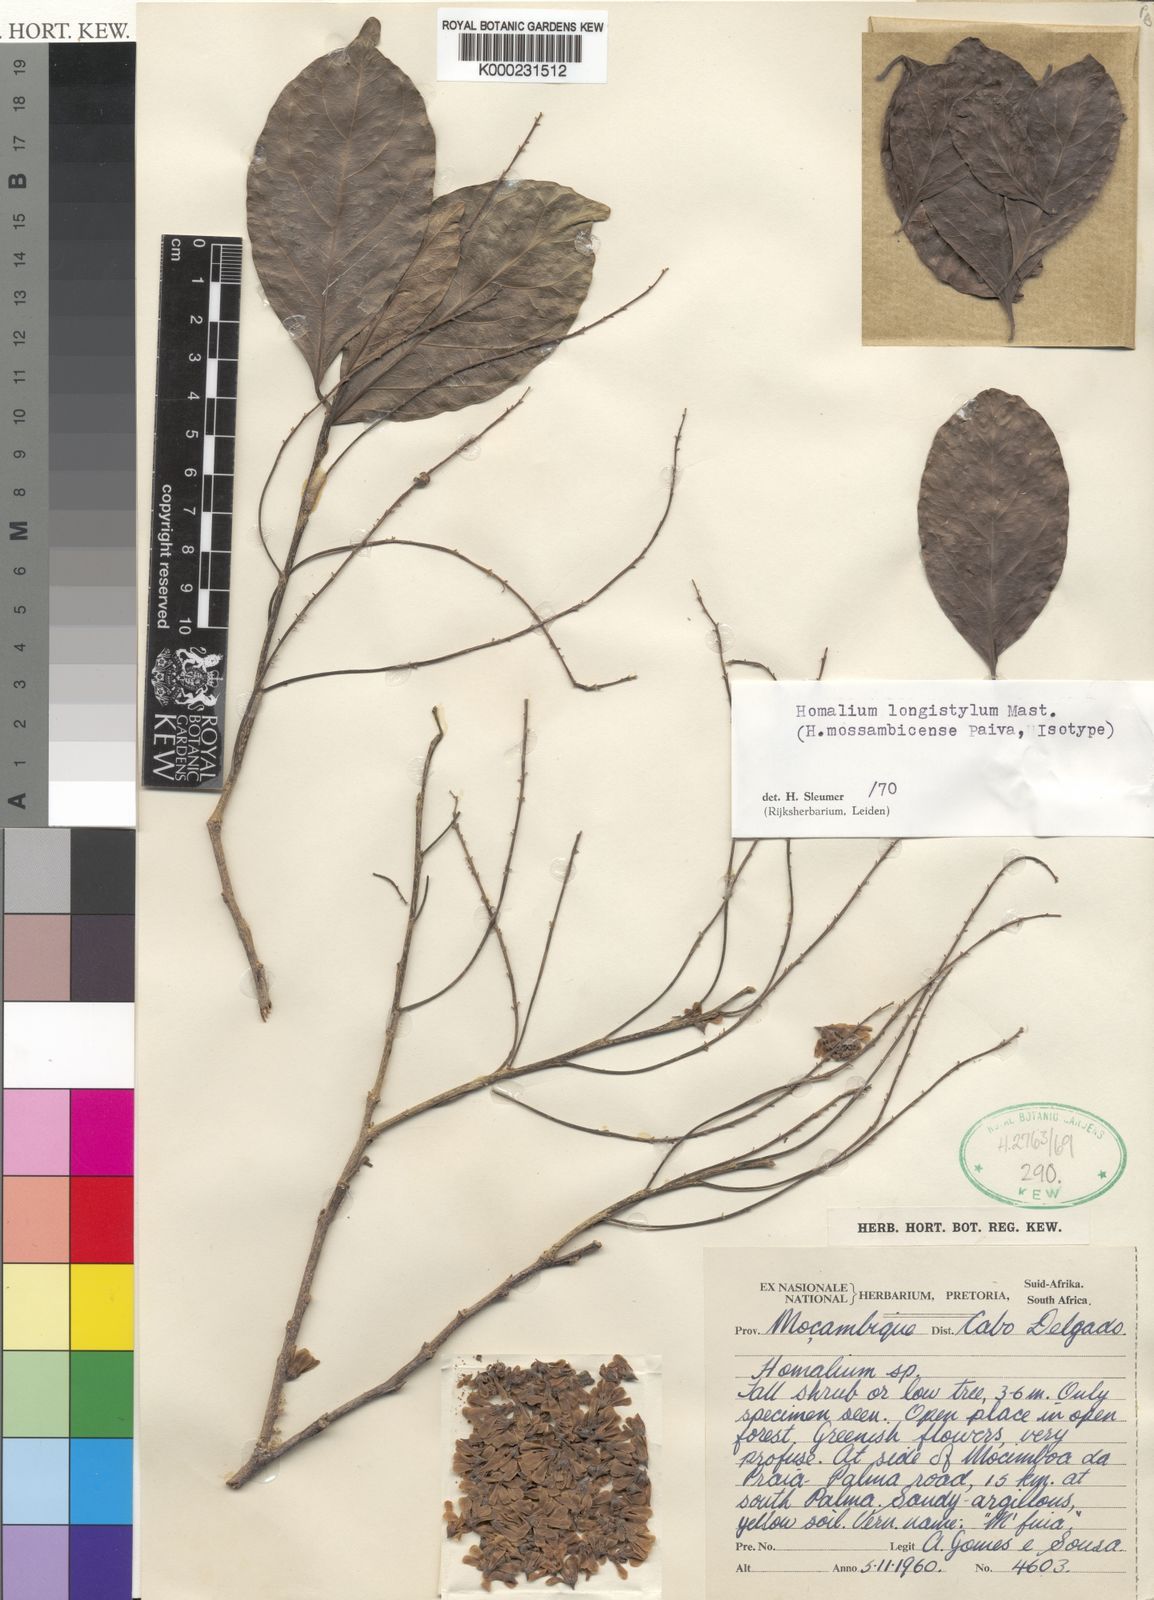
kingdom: Plantae
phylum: Tracheophyta
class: Magnoliopsida
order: Malpighiales
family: Salicaceae
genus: Homalium
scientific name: Homalium longistylum
